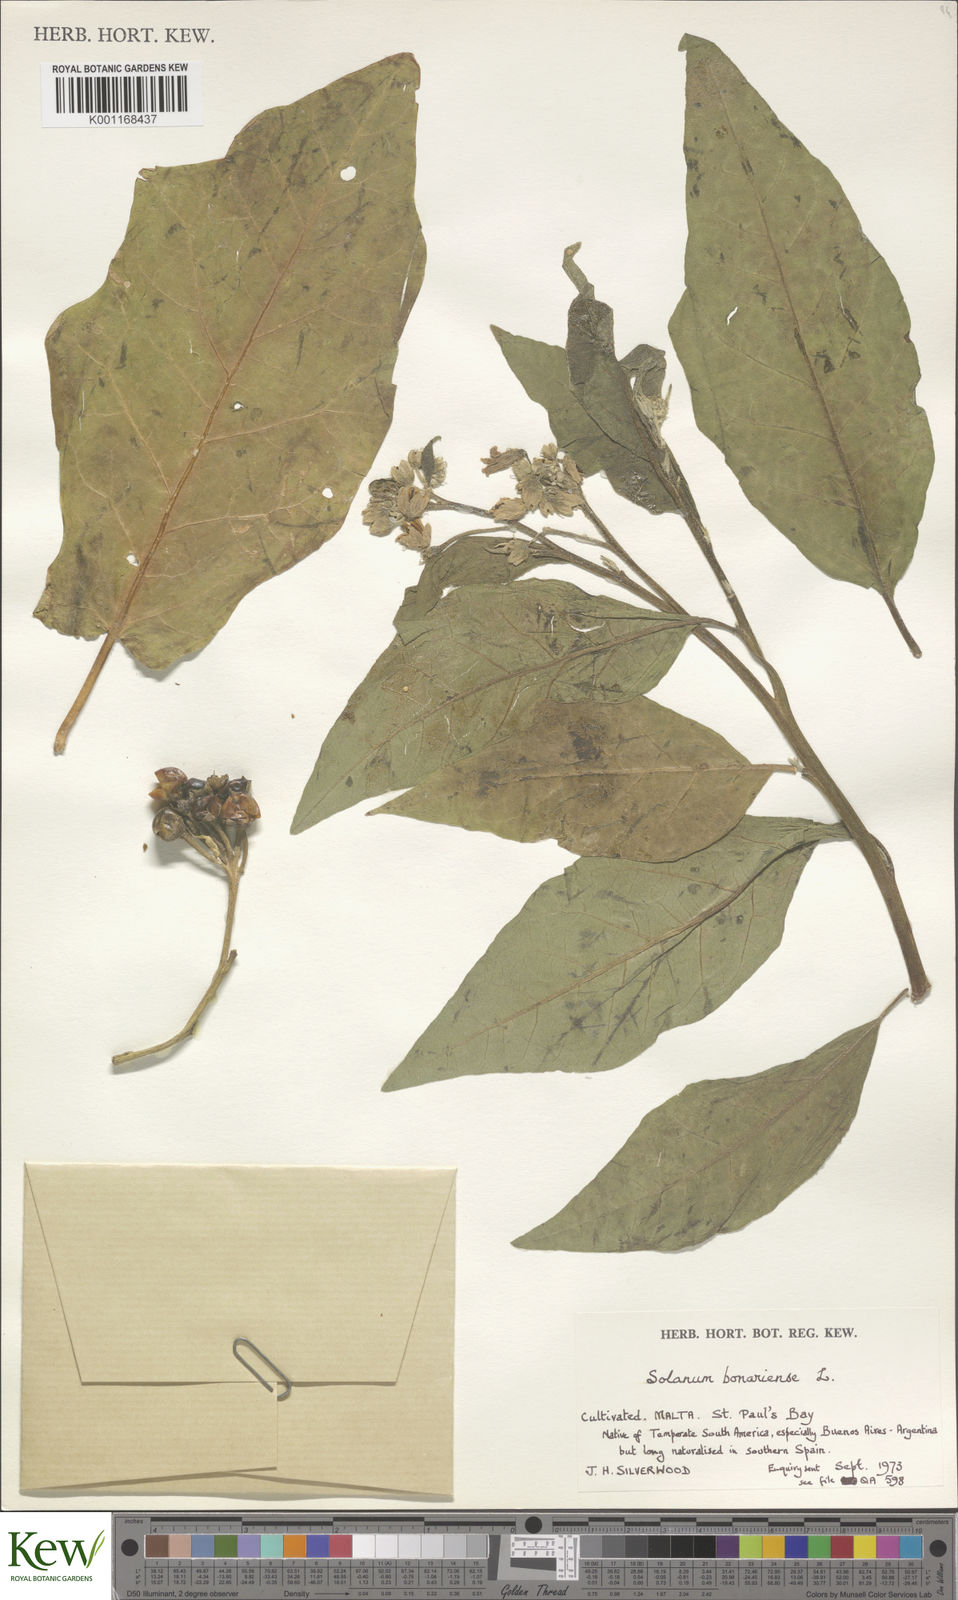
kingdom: Plantae
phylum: Tracheophyta
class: Magnoliopsida
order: Solanales
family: Solanaceae
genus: Solanum
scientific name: Solanum bonariense
